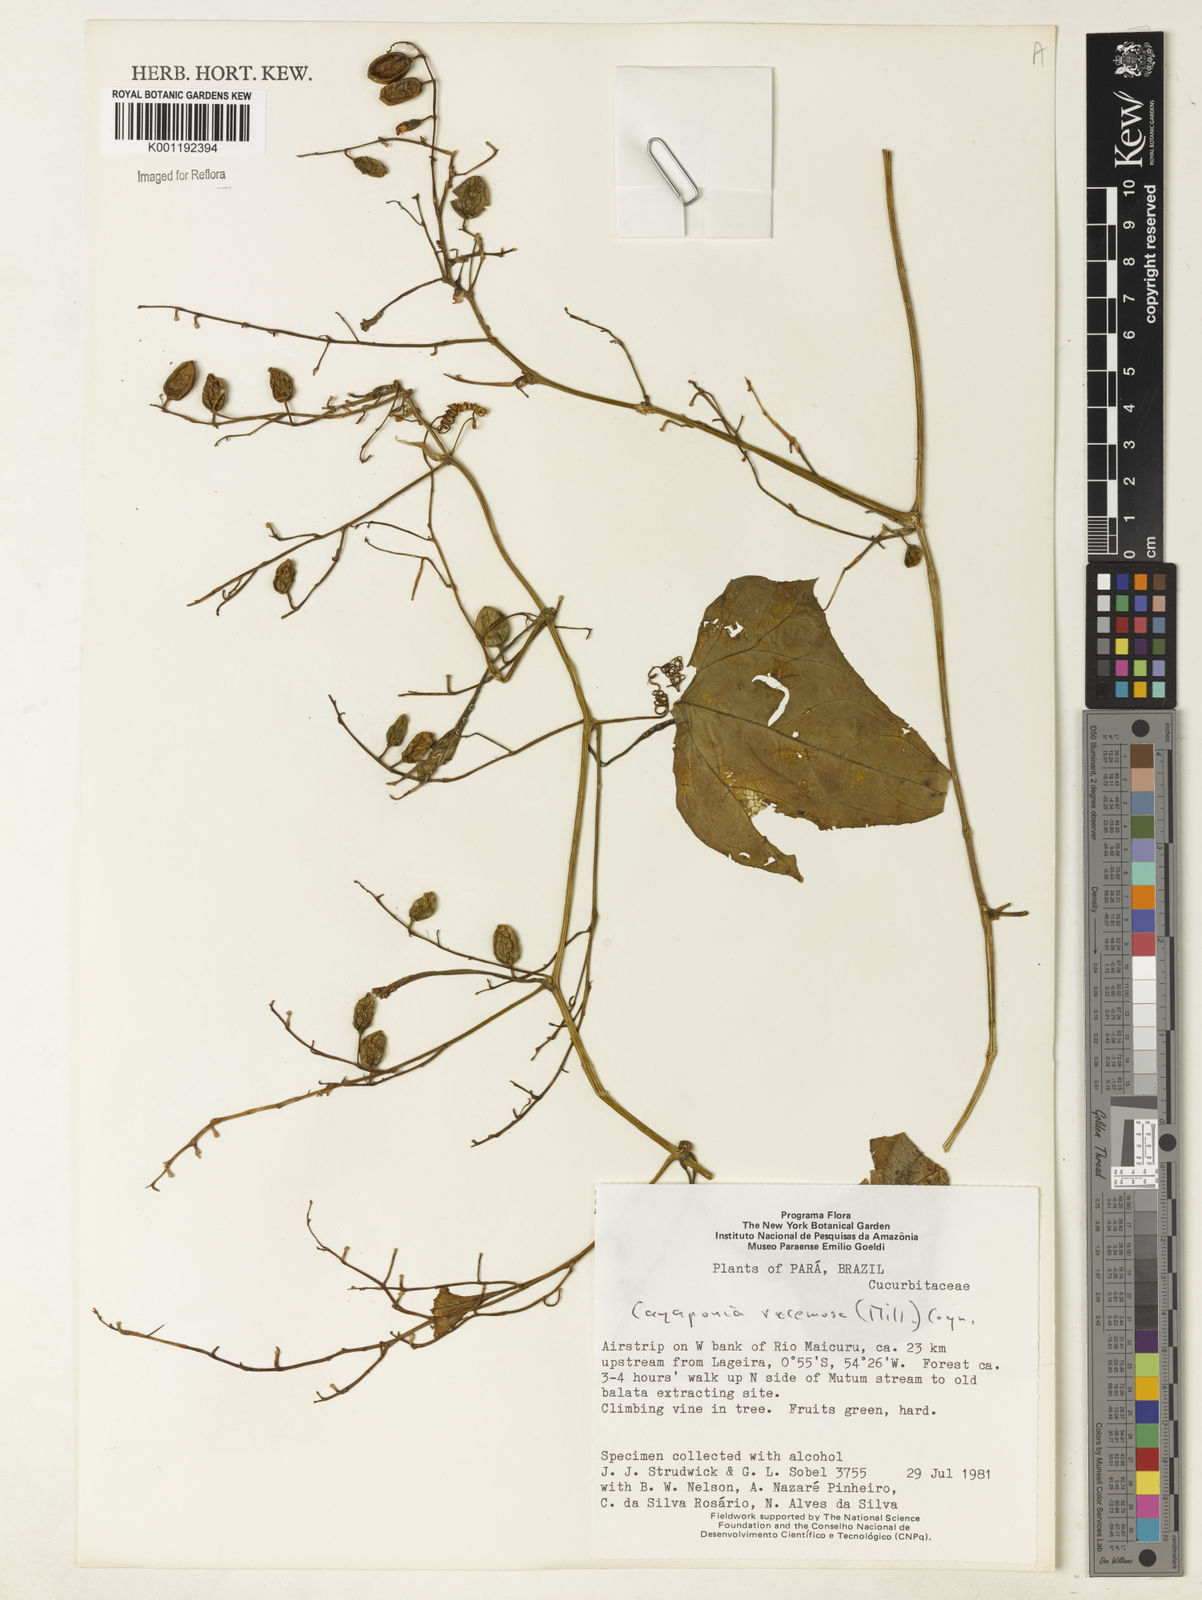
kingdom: Plantae
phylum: Tracheophyta
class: Magnoliopsida
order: Cucurbitales
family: Cucurbitaceae
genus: Cayaponia
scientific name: Cayaponia racemosa
